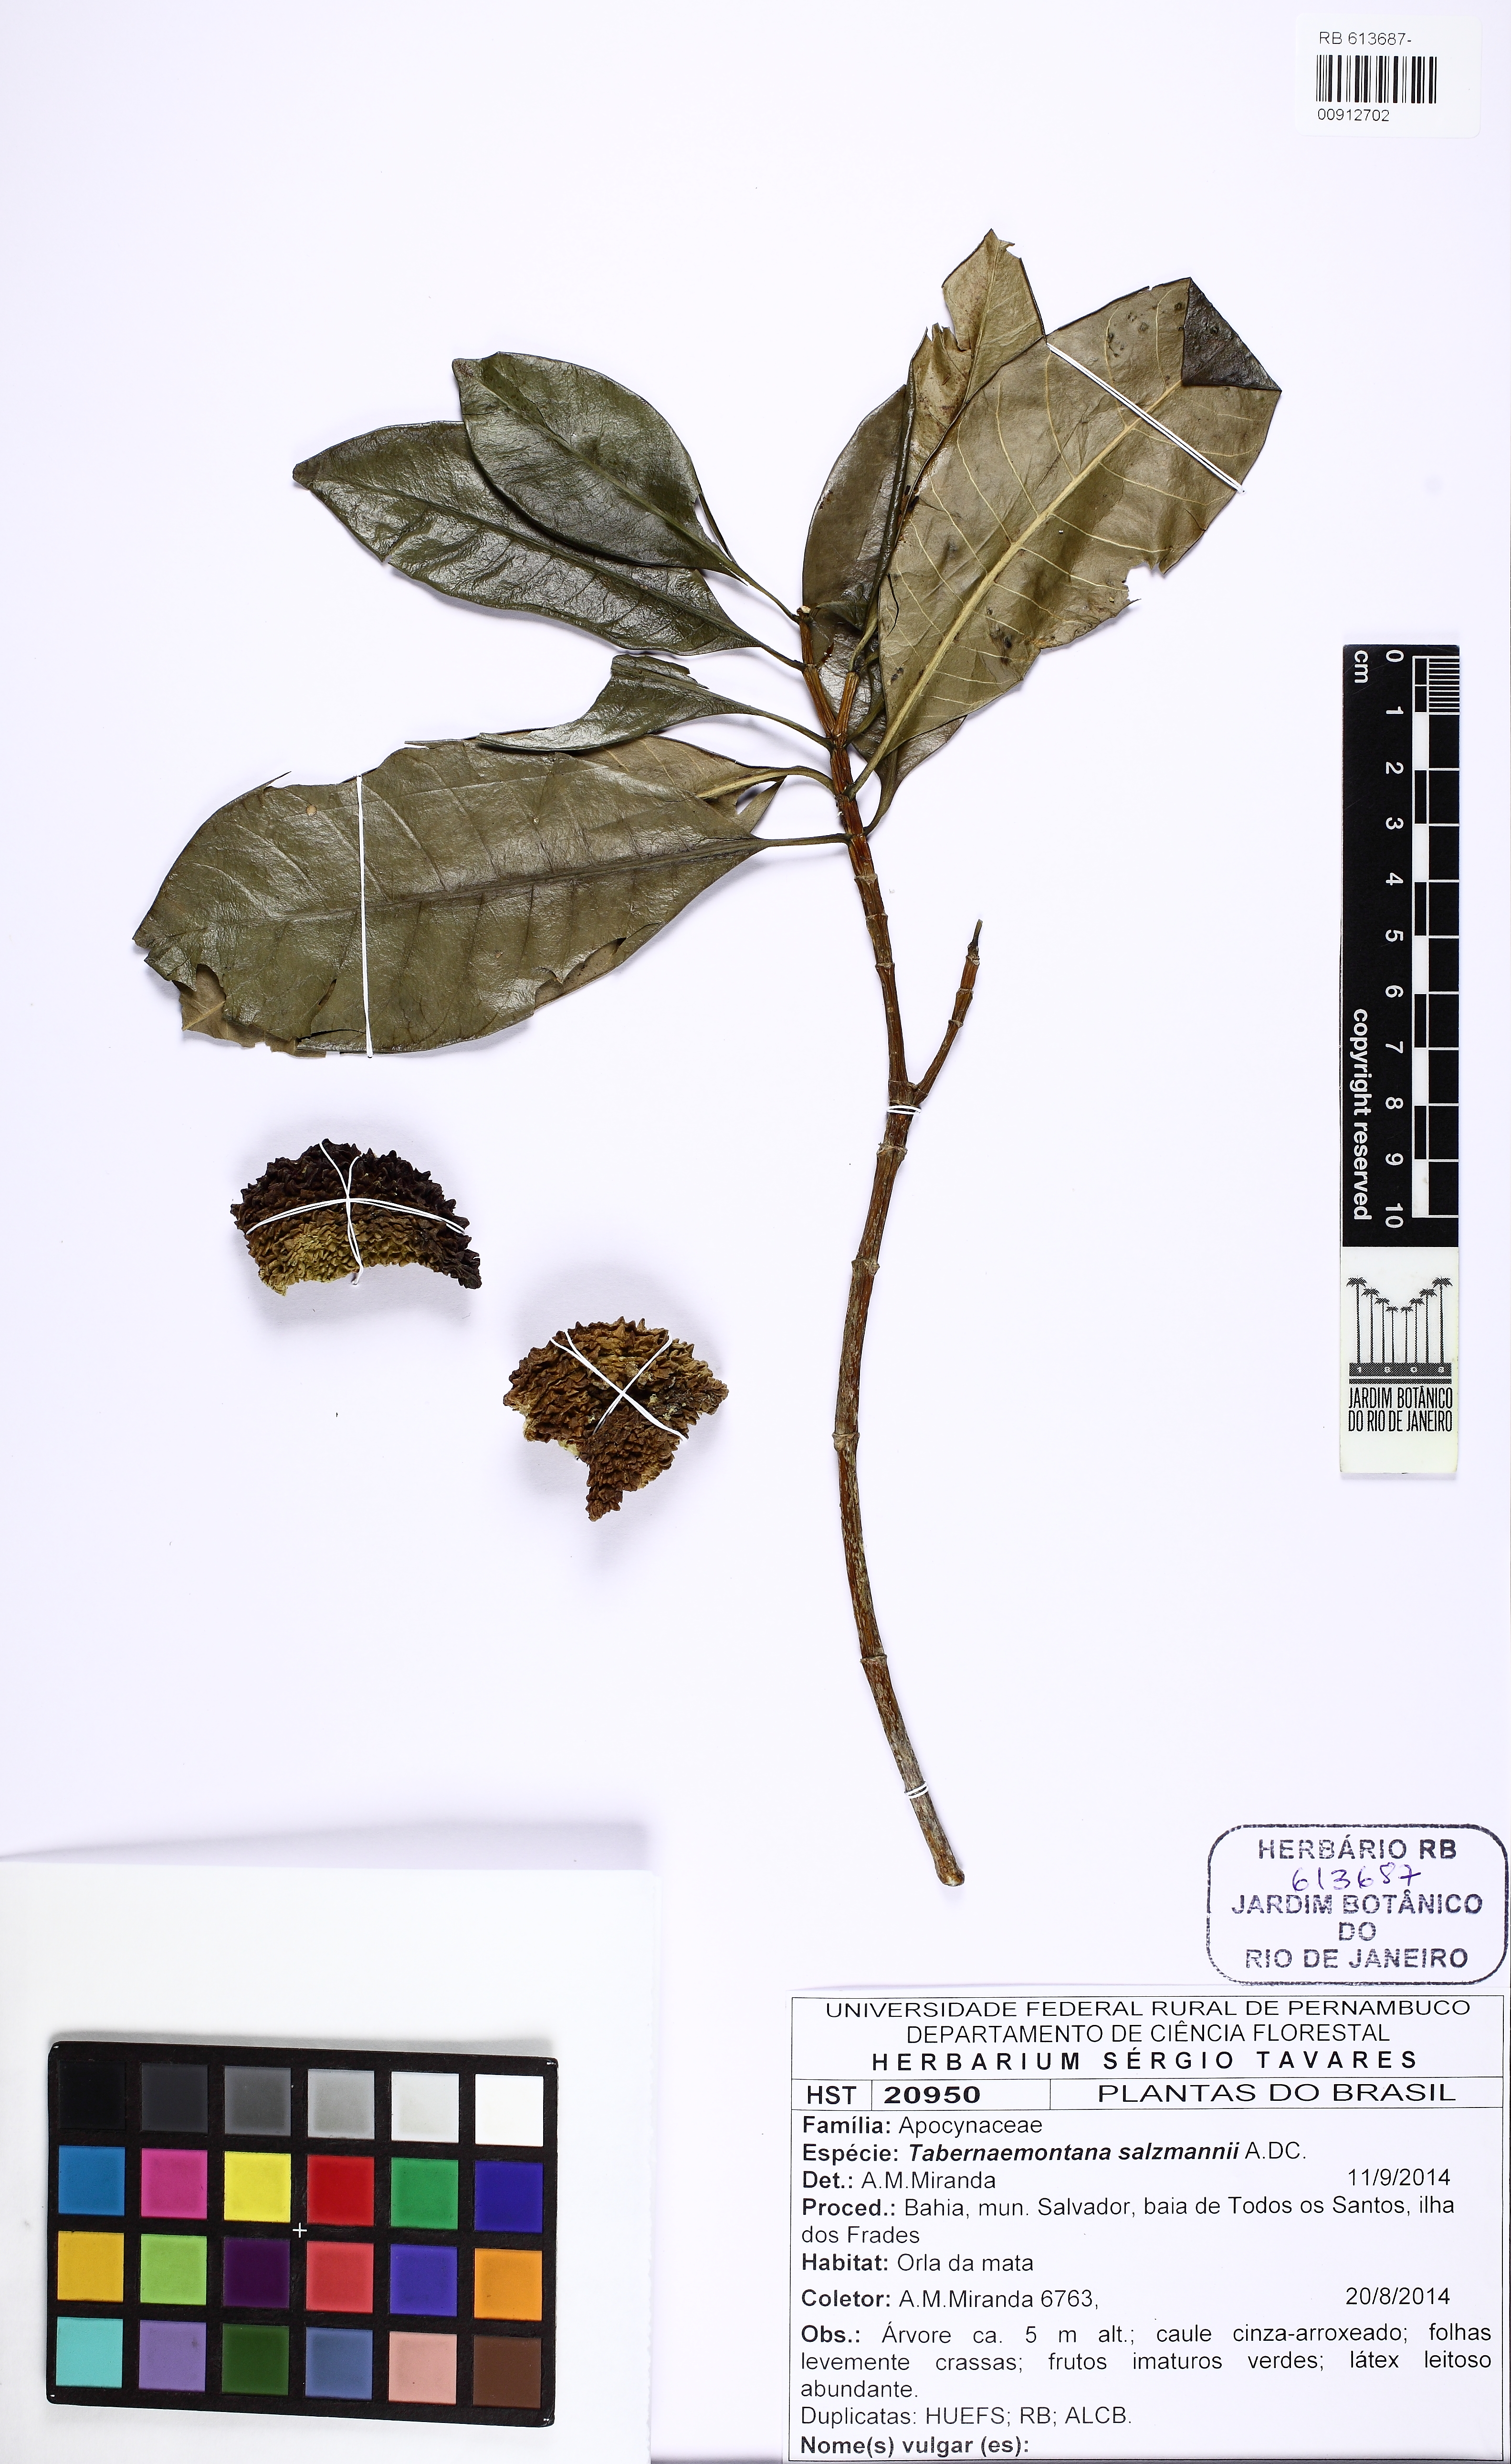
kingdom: Plantae
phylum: Tracheophyta
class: Magnoliopsida
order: Gentianales
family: Apocynaceae
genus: Tabernaemontana
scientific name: Tabernaemontana salzmannii
